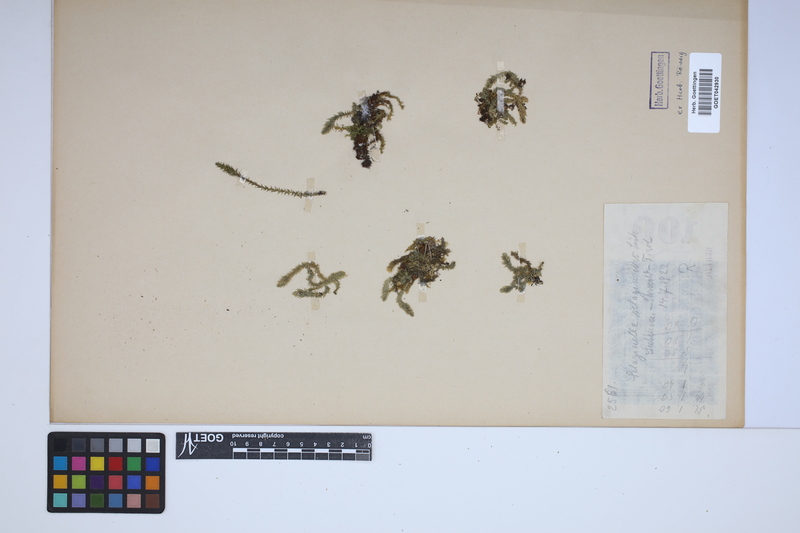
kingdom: Plantae
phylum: Tracheophyta
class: Lycopodiopsida
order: Selaginellales
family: Selaginellaceae
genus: Selaginella
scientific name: Selaginella selaginoides
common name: Prickly mountain-moss
